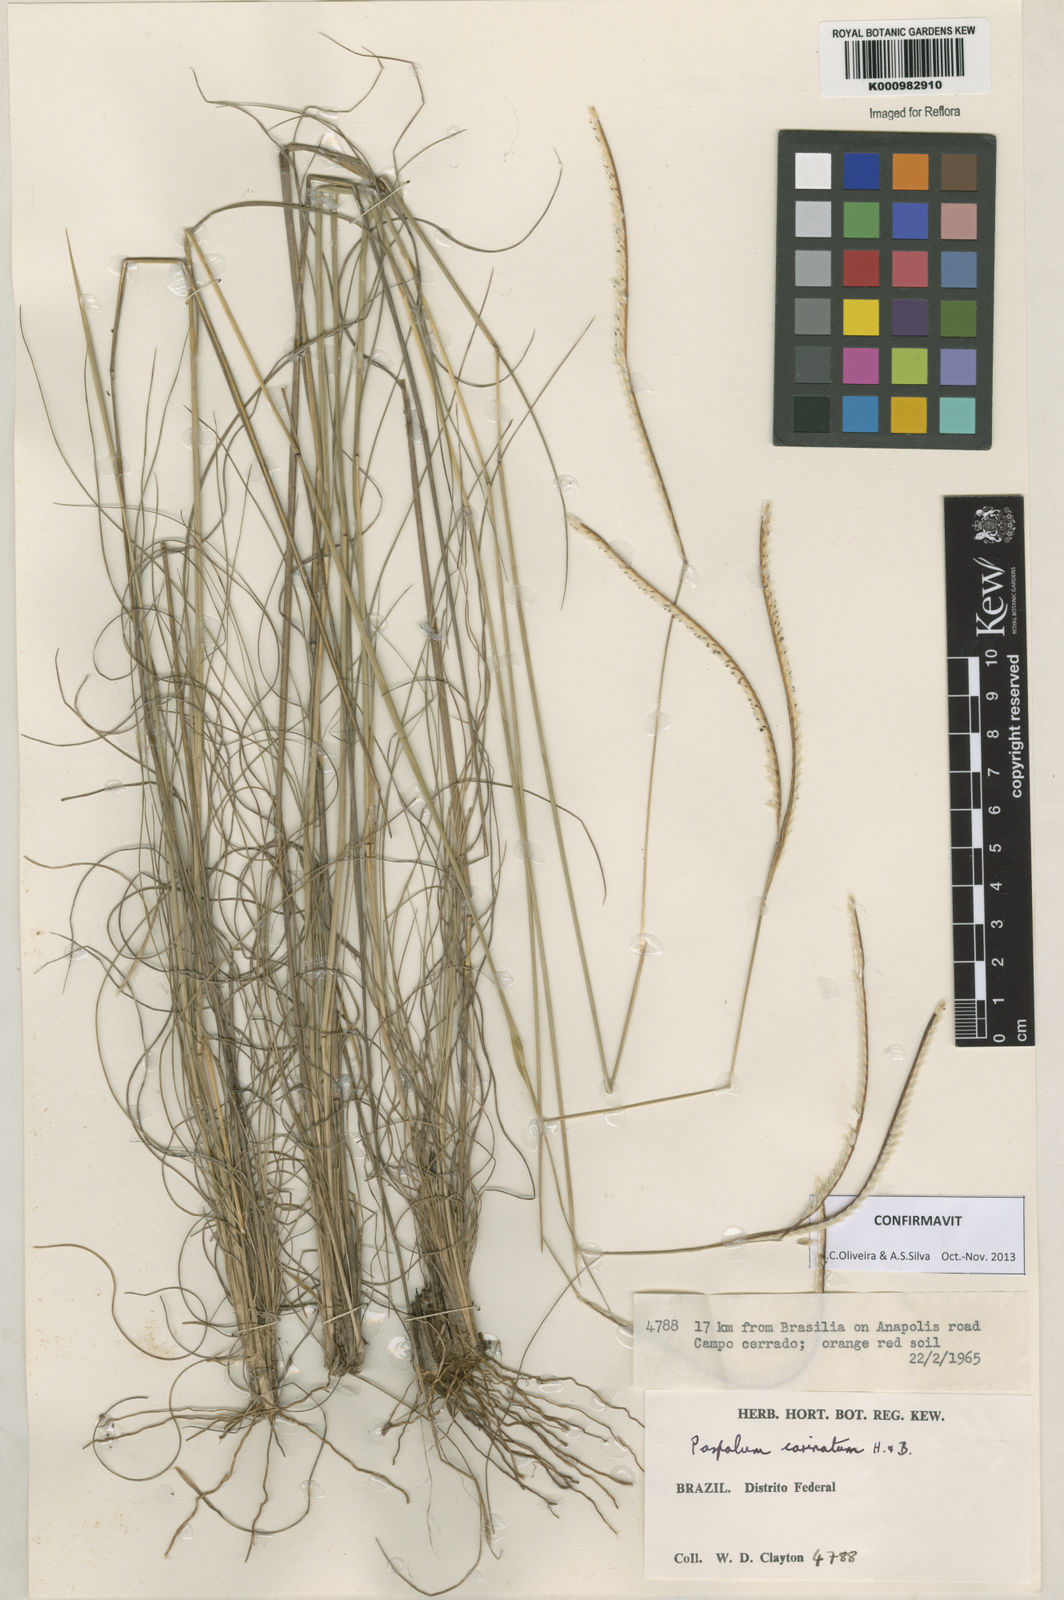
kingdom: Plantae
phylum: Tracheophyta
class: Liliopsida
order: Poales
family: Poaceae
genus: Paspalum
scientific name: Paspalum
